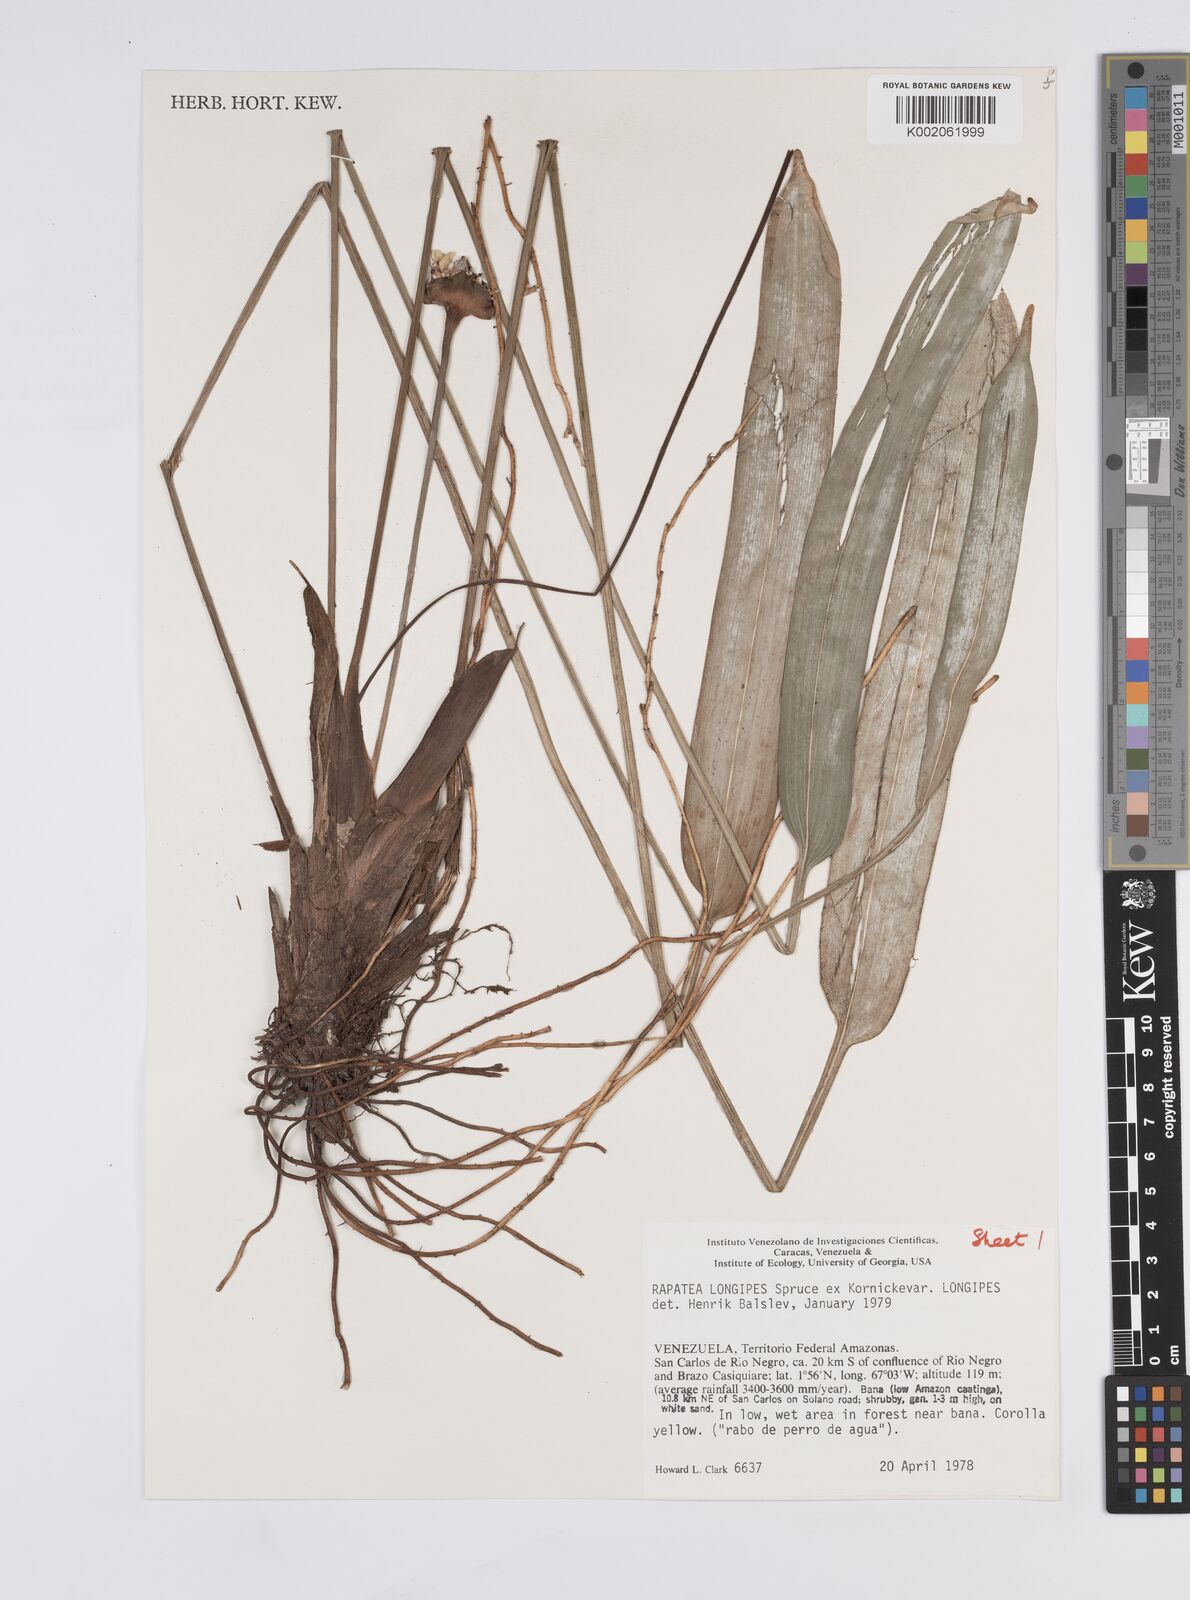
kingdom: Plantae
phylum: Tracheophyta
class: Liliopsida
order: Poales
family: Rapateaceae
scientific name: Rapateaceae
